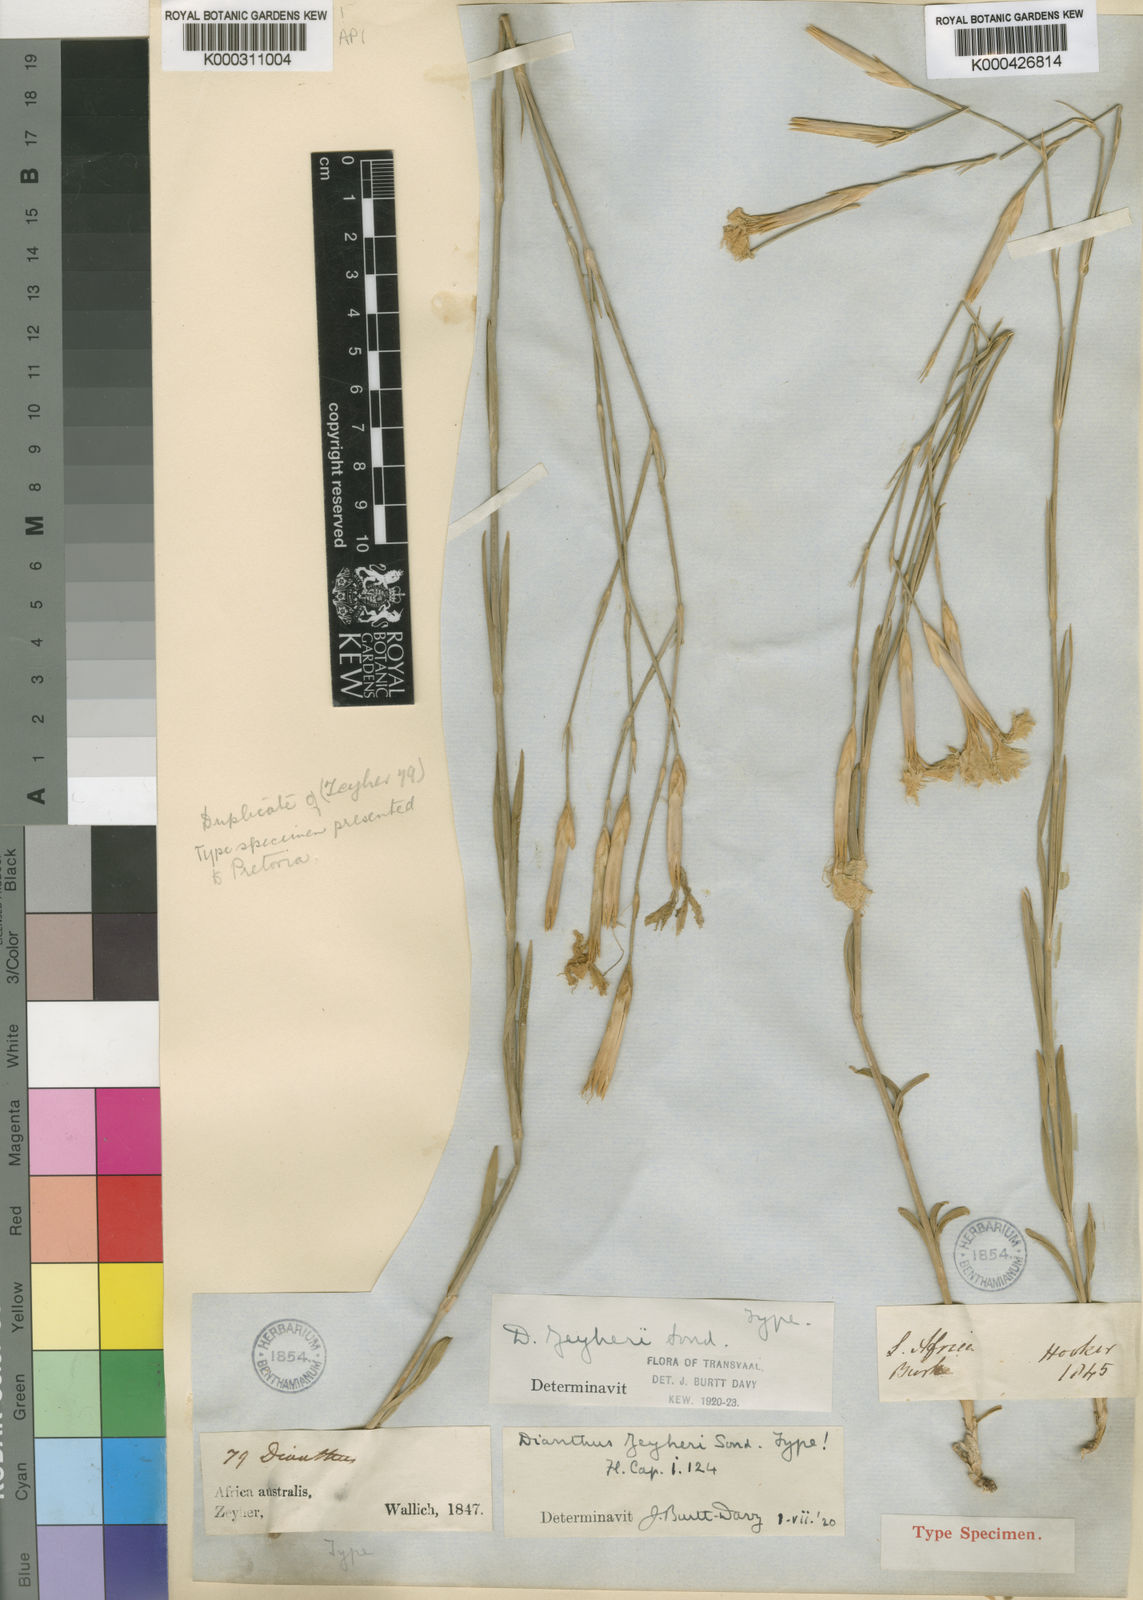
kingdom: Plantae
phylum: Tracheophyta
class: Magnoliopsida
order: Caryophyllales
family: Caryophyllaceae
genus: Dianthus
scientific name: Dianthus zeyheri
